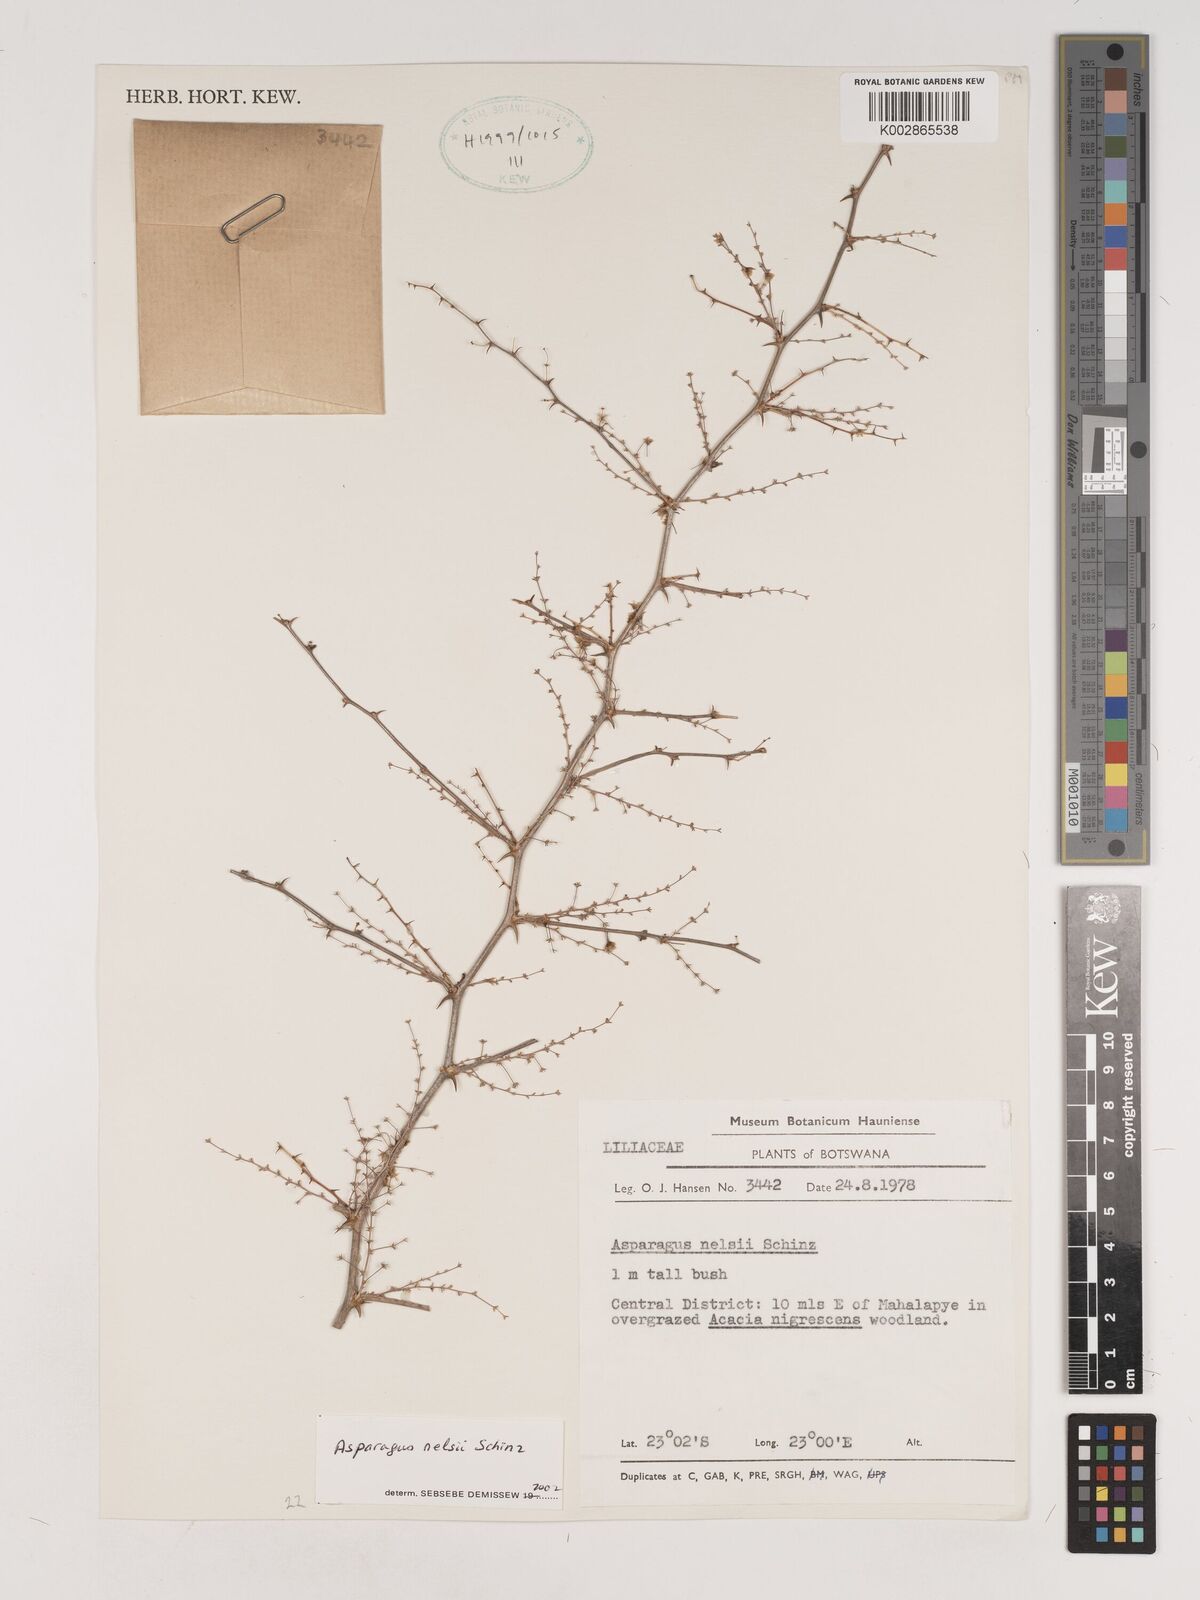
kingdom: Plantae
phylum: Tracheophyta
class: Liliopsida
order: Asparagales
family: Asparagaceae
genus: Asparagus
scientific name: Asparagus nelsii
